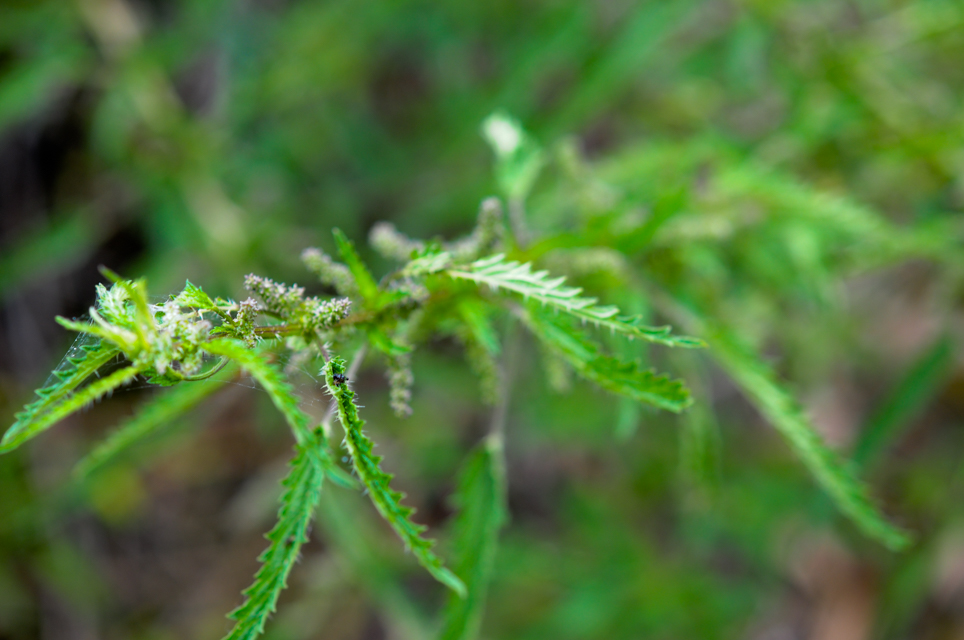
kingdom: Plantae
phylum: Tracheophyta
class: Magnoliopsida
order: Rosales
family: Urticaceae
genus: Urtica
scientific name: Urtica incisa
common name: Scrub nettle
